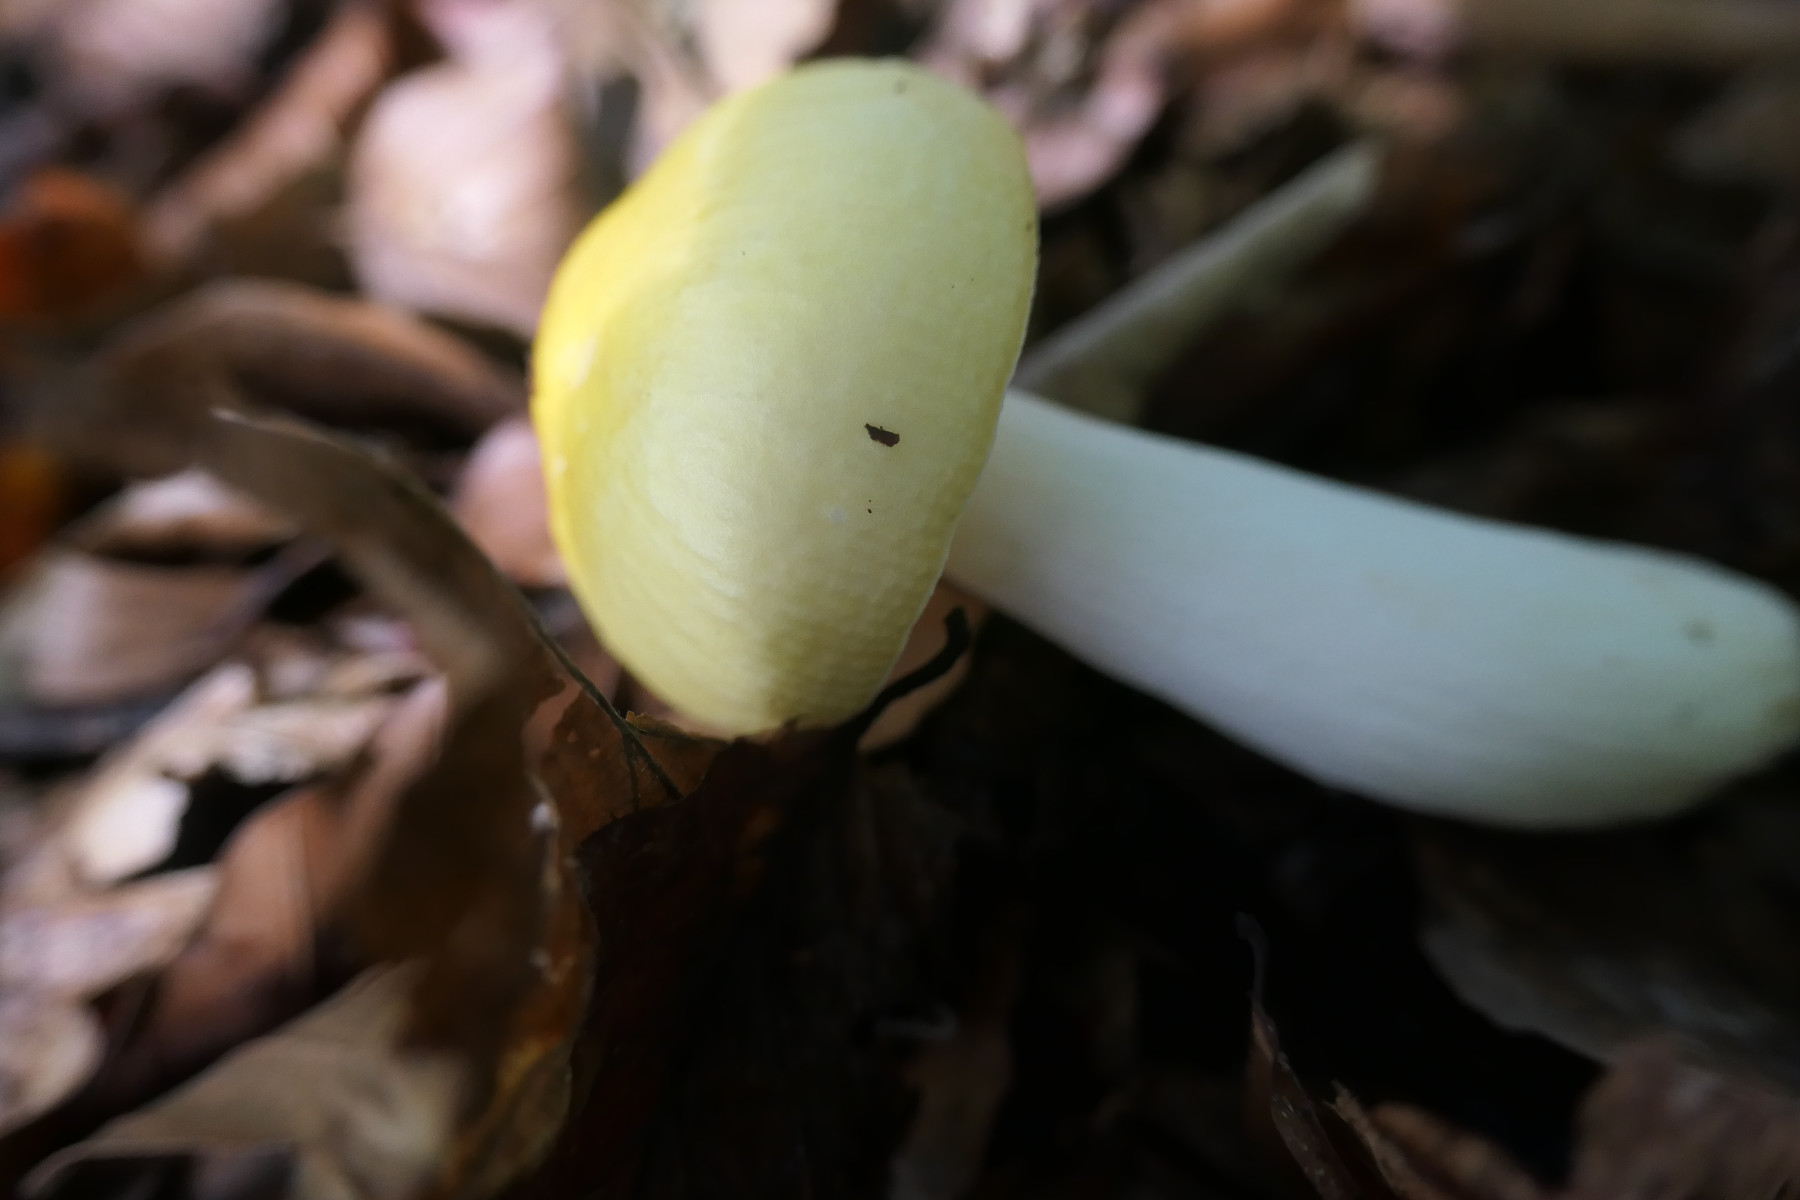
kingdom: Fungi
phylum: Basidiomycota
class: Agaricomycetes
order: Russulales
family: Russulaceae
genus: Russula
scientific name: Russula solaris
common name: sol-skørhat
